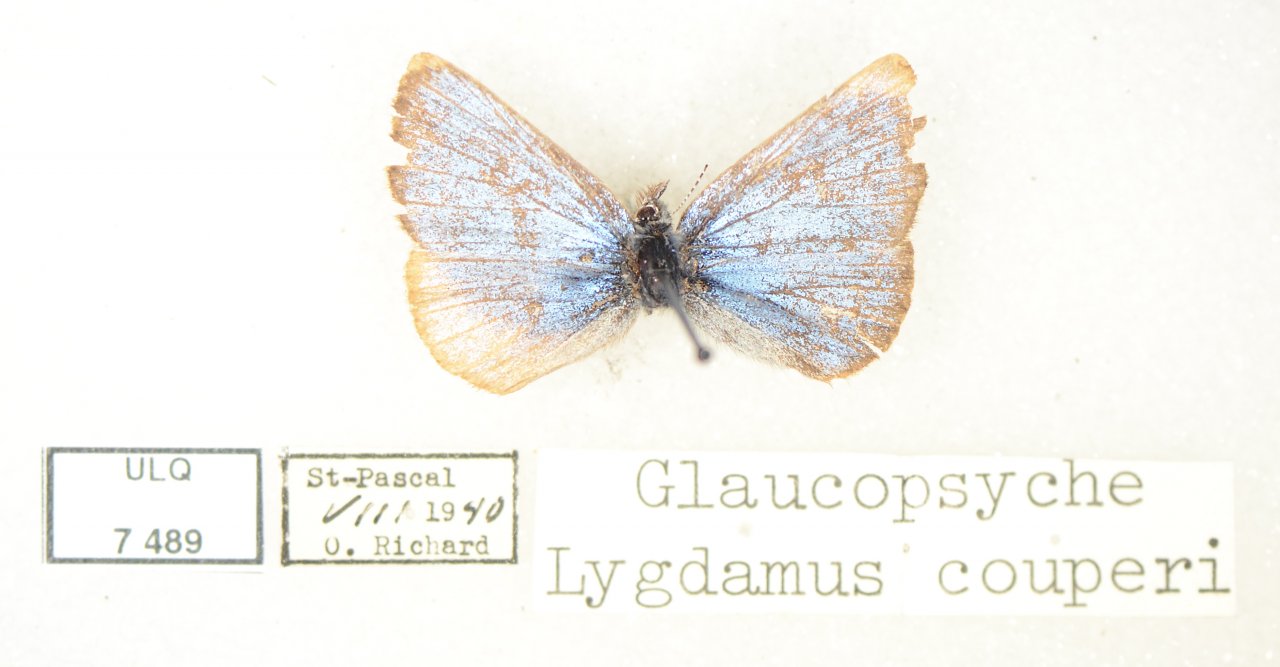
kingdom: Animalia
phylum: Arthropoda
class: Insecta
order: Lepidoptera
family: Lycaenidae
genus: Glaucopsyche
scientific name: Glaucopsyche lygdamus
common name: Silvery Blue
